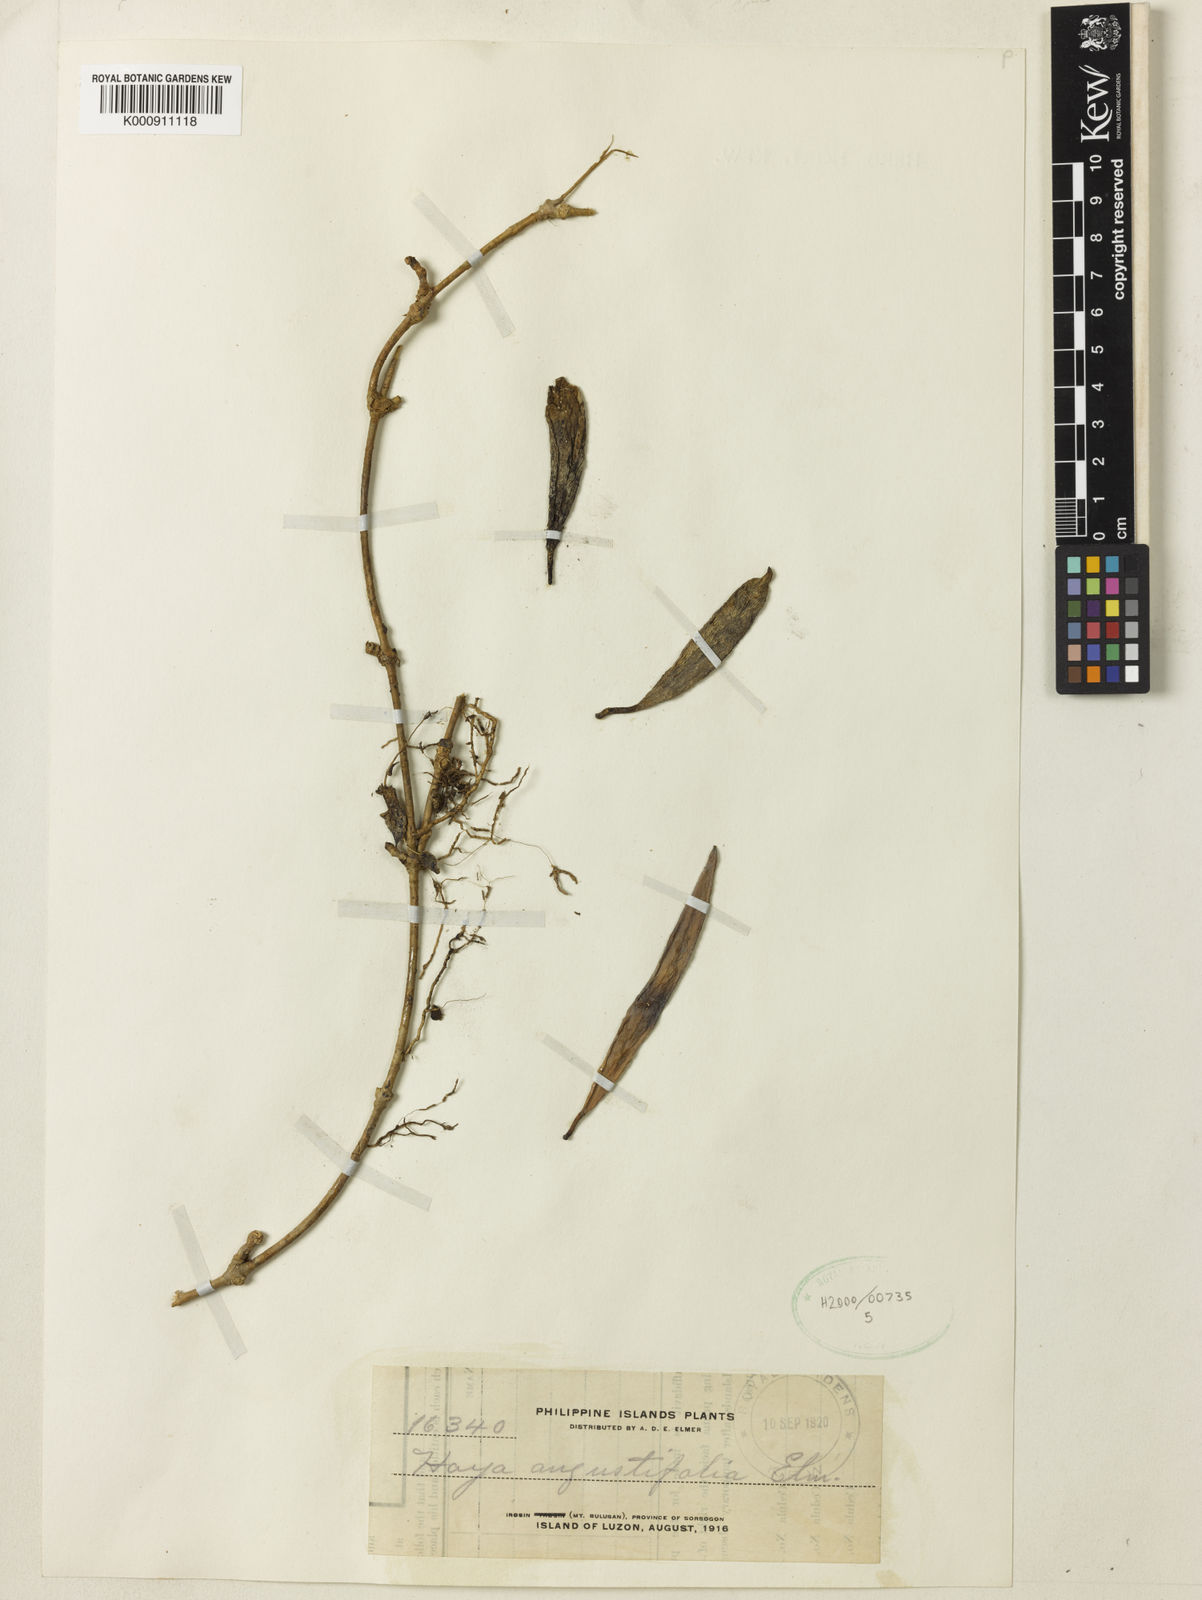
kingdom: Plantae
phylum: Tracheophyta
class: Magnoliopsida
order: Gentianales
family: Apocynaceae
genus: Hoya
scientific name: Hoya
